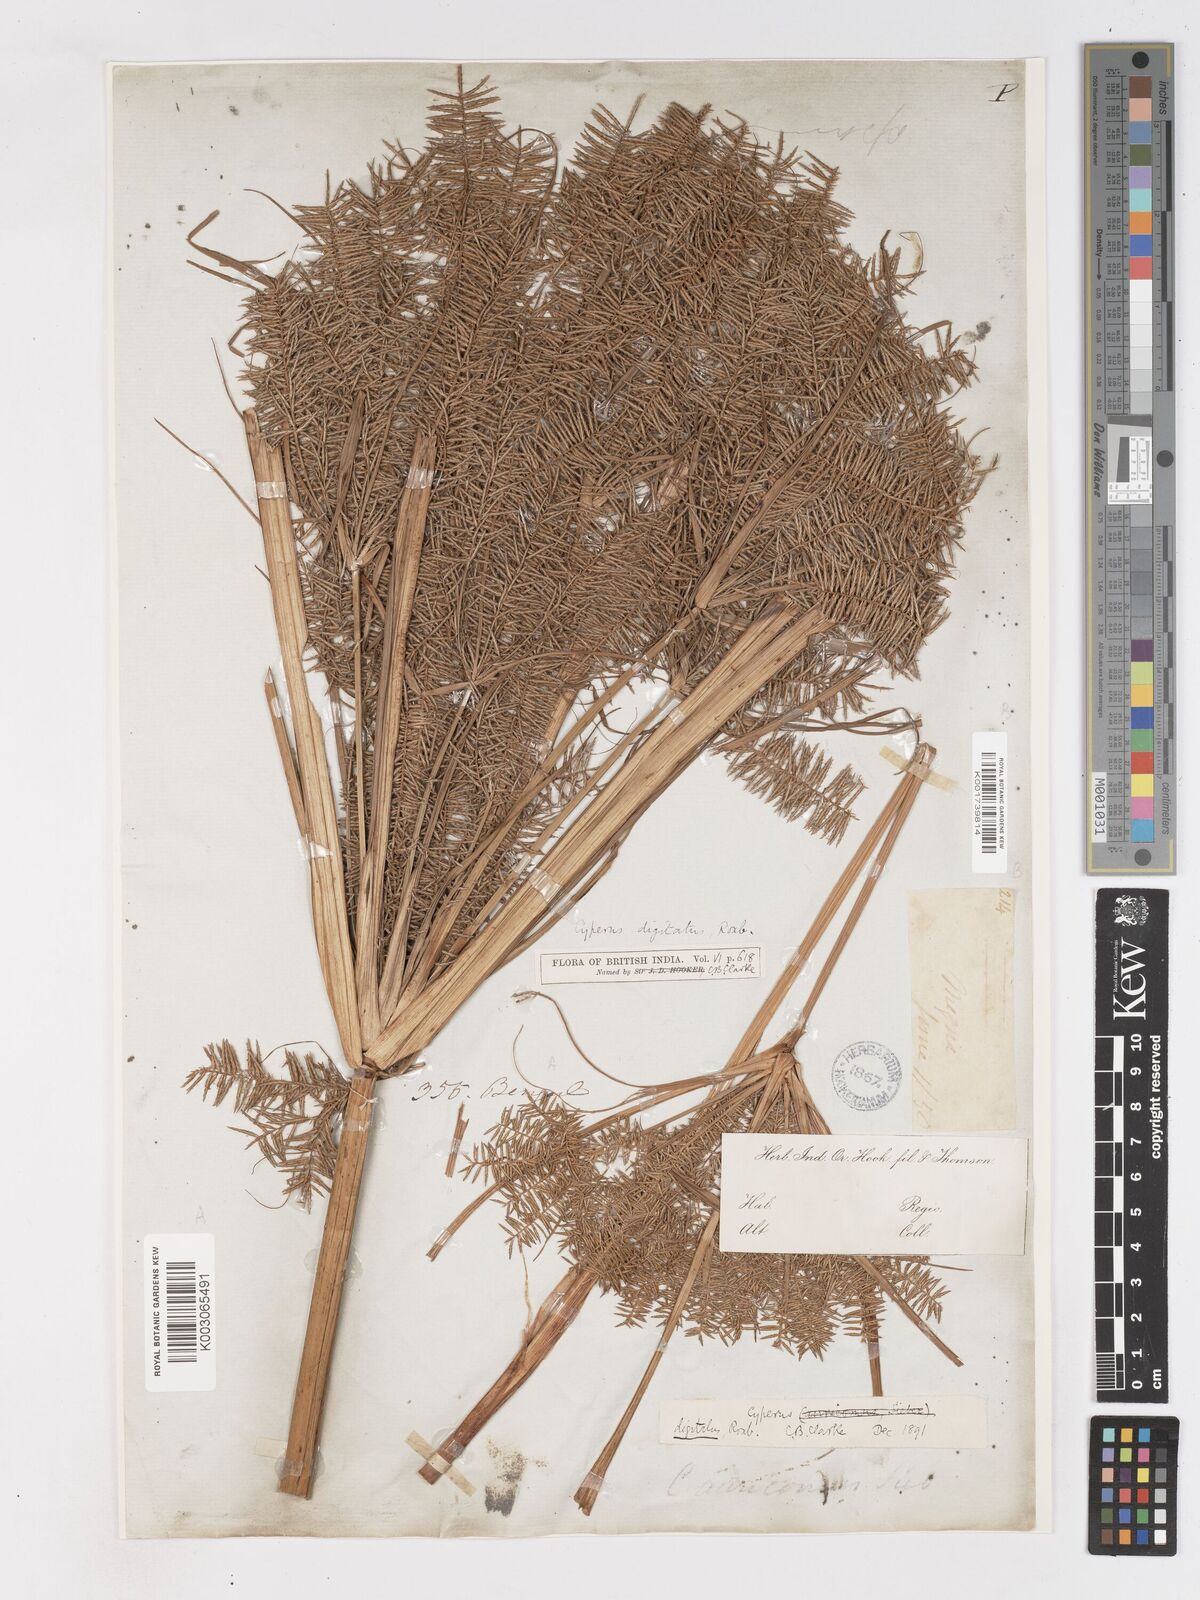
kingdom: Plantae
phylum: Tracheophyta
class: Liliopsida
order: Poales
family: Cyperaceae
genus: Cyperus
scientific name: Cyperus digitatus
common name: Finger flatsedge
